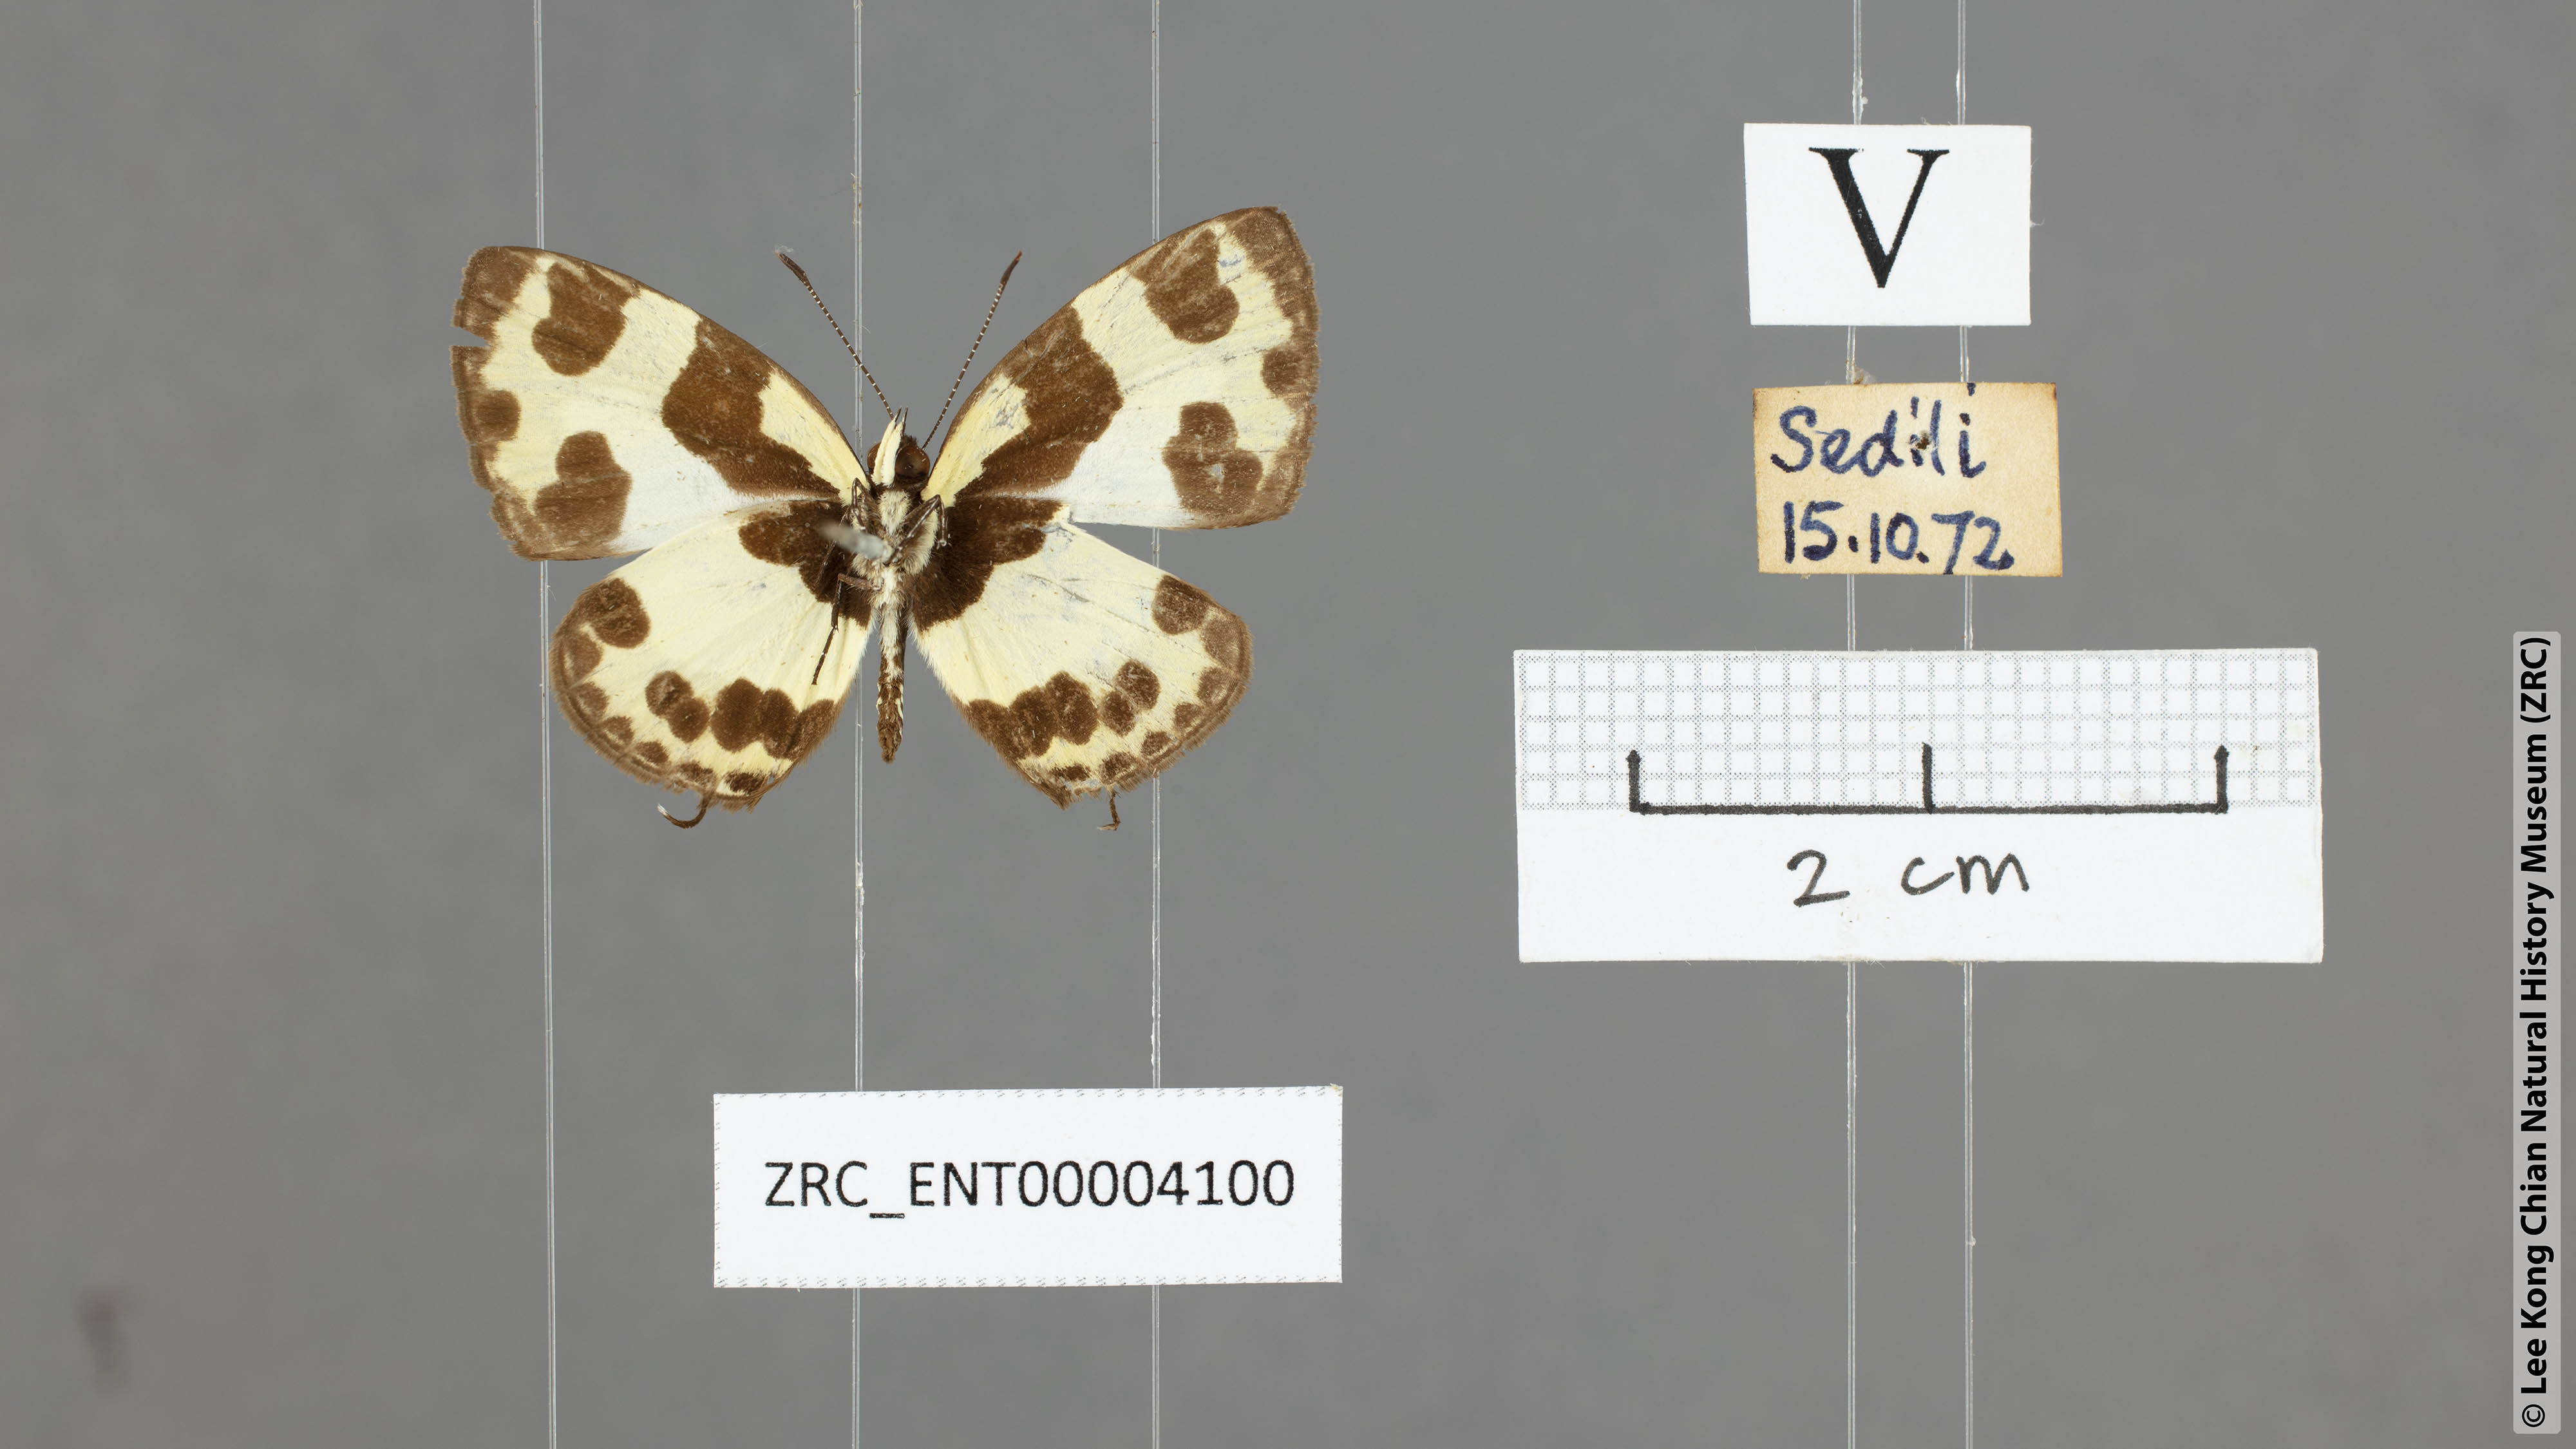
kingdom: Animalia
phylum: Arthropoda
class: Insecta
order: Lepidoptera
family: Lycaenidae
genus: Caleta
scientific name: Caleta elna
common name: Elbowed pierrot
